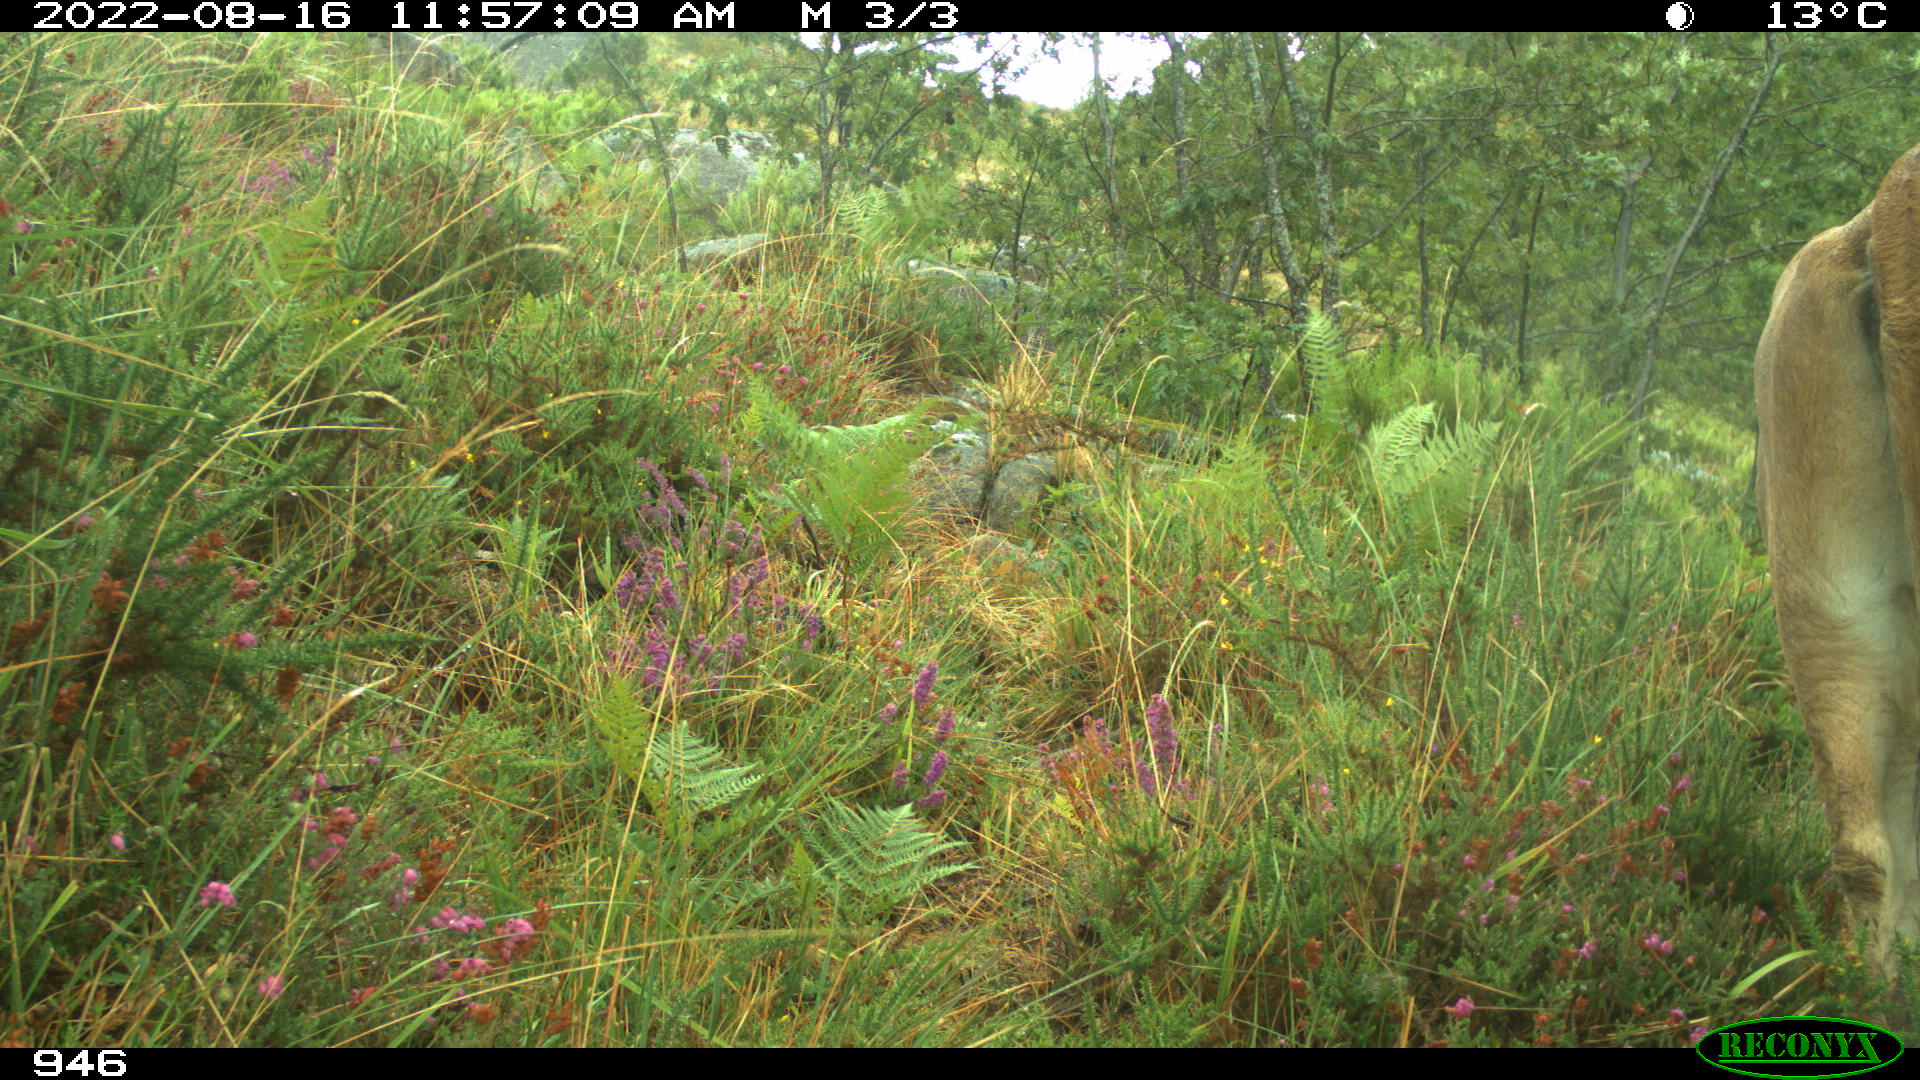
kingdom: Animalia
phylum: Chordata
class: Mammalia
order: Artiodactyla
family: Bovidae
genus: Bos
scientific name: Bos taurus
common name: Domesticated cattle
